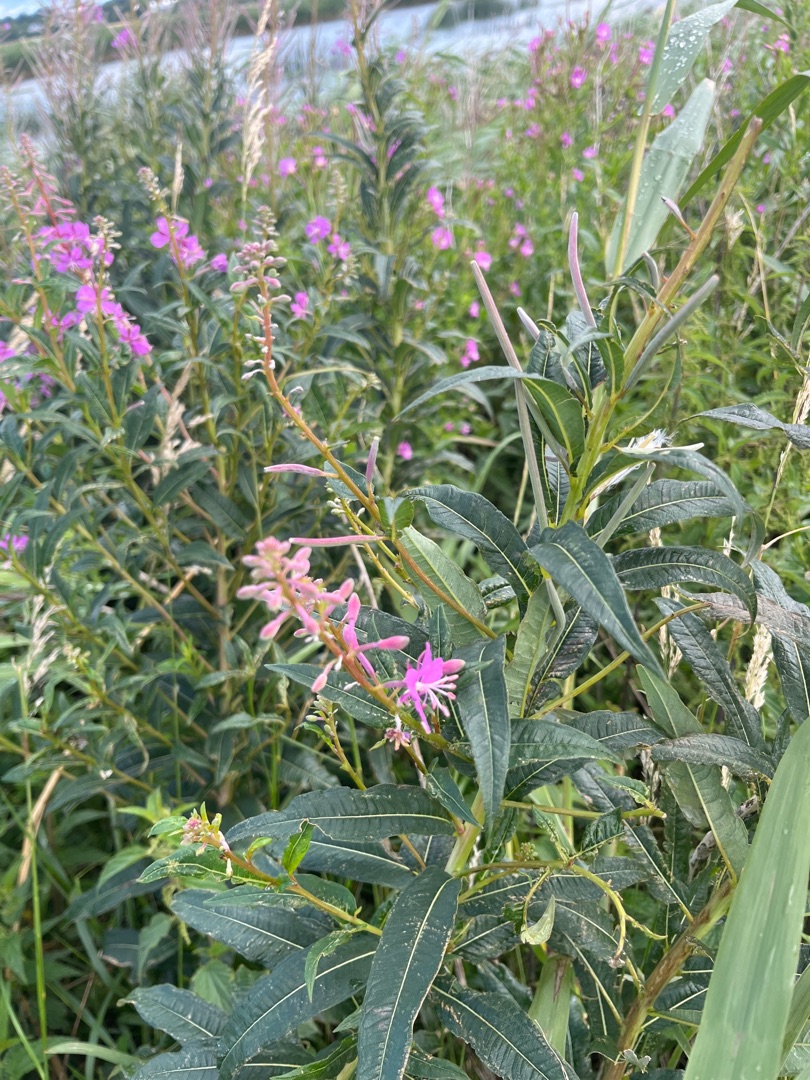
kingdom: Plantae
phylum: Tracheophyta
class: Magnoliopsida
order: Myrtales
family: Onagraceae
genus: Chamaenerion
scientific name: Chamaenerion angustifolium
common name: Gederams
